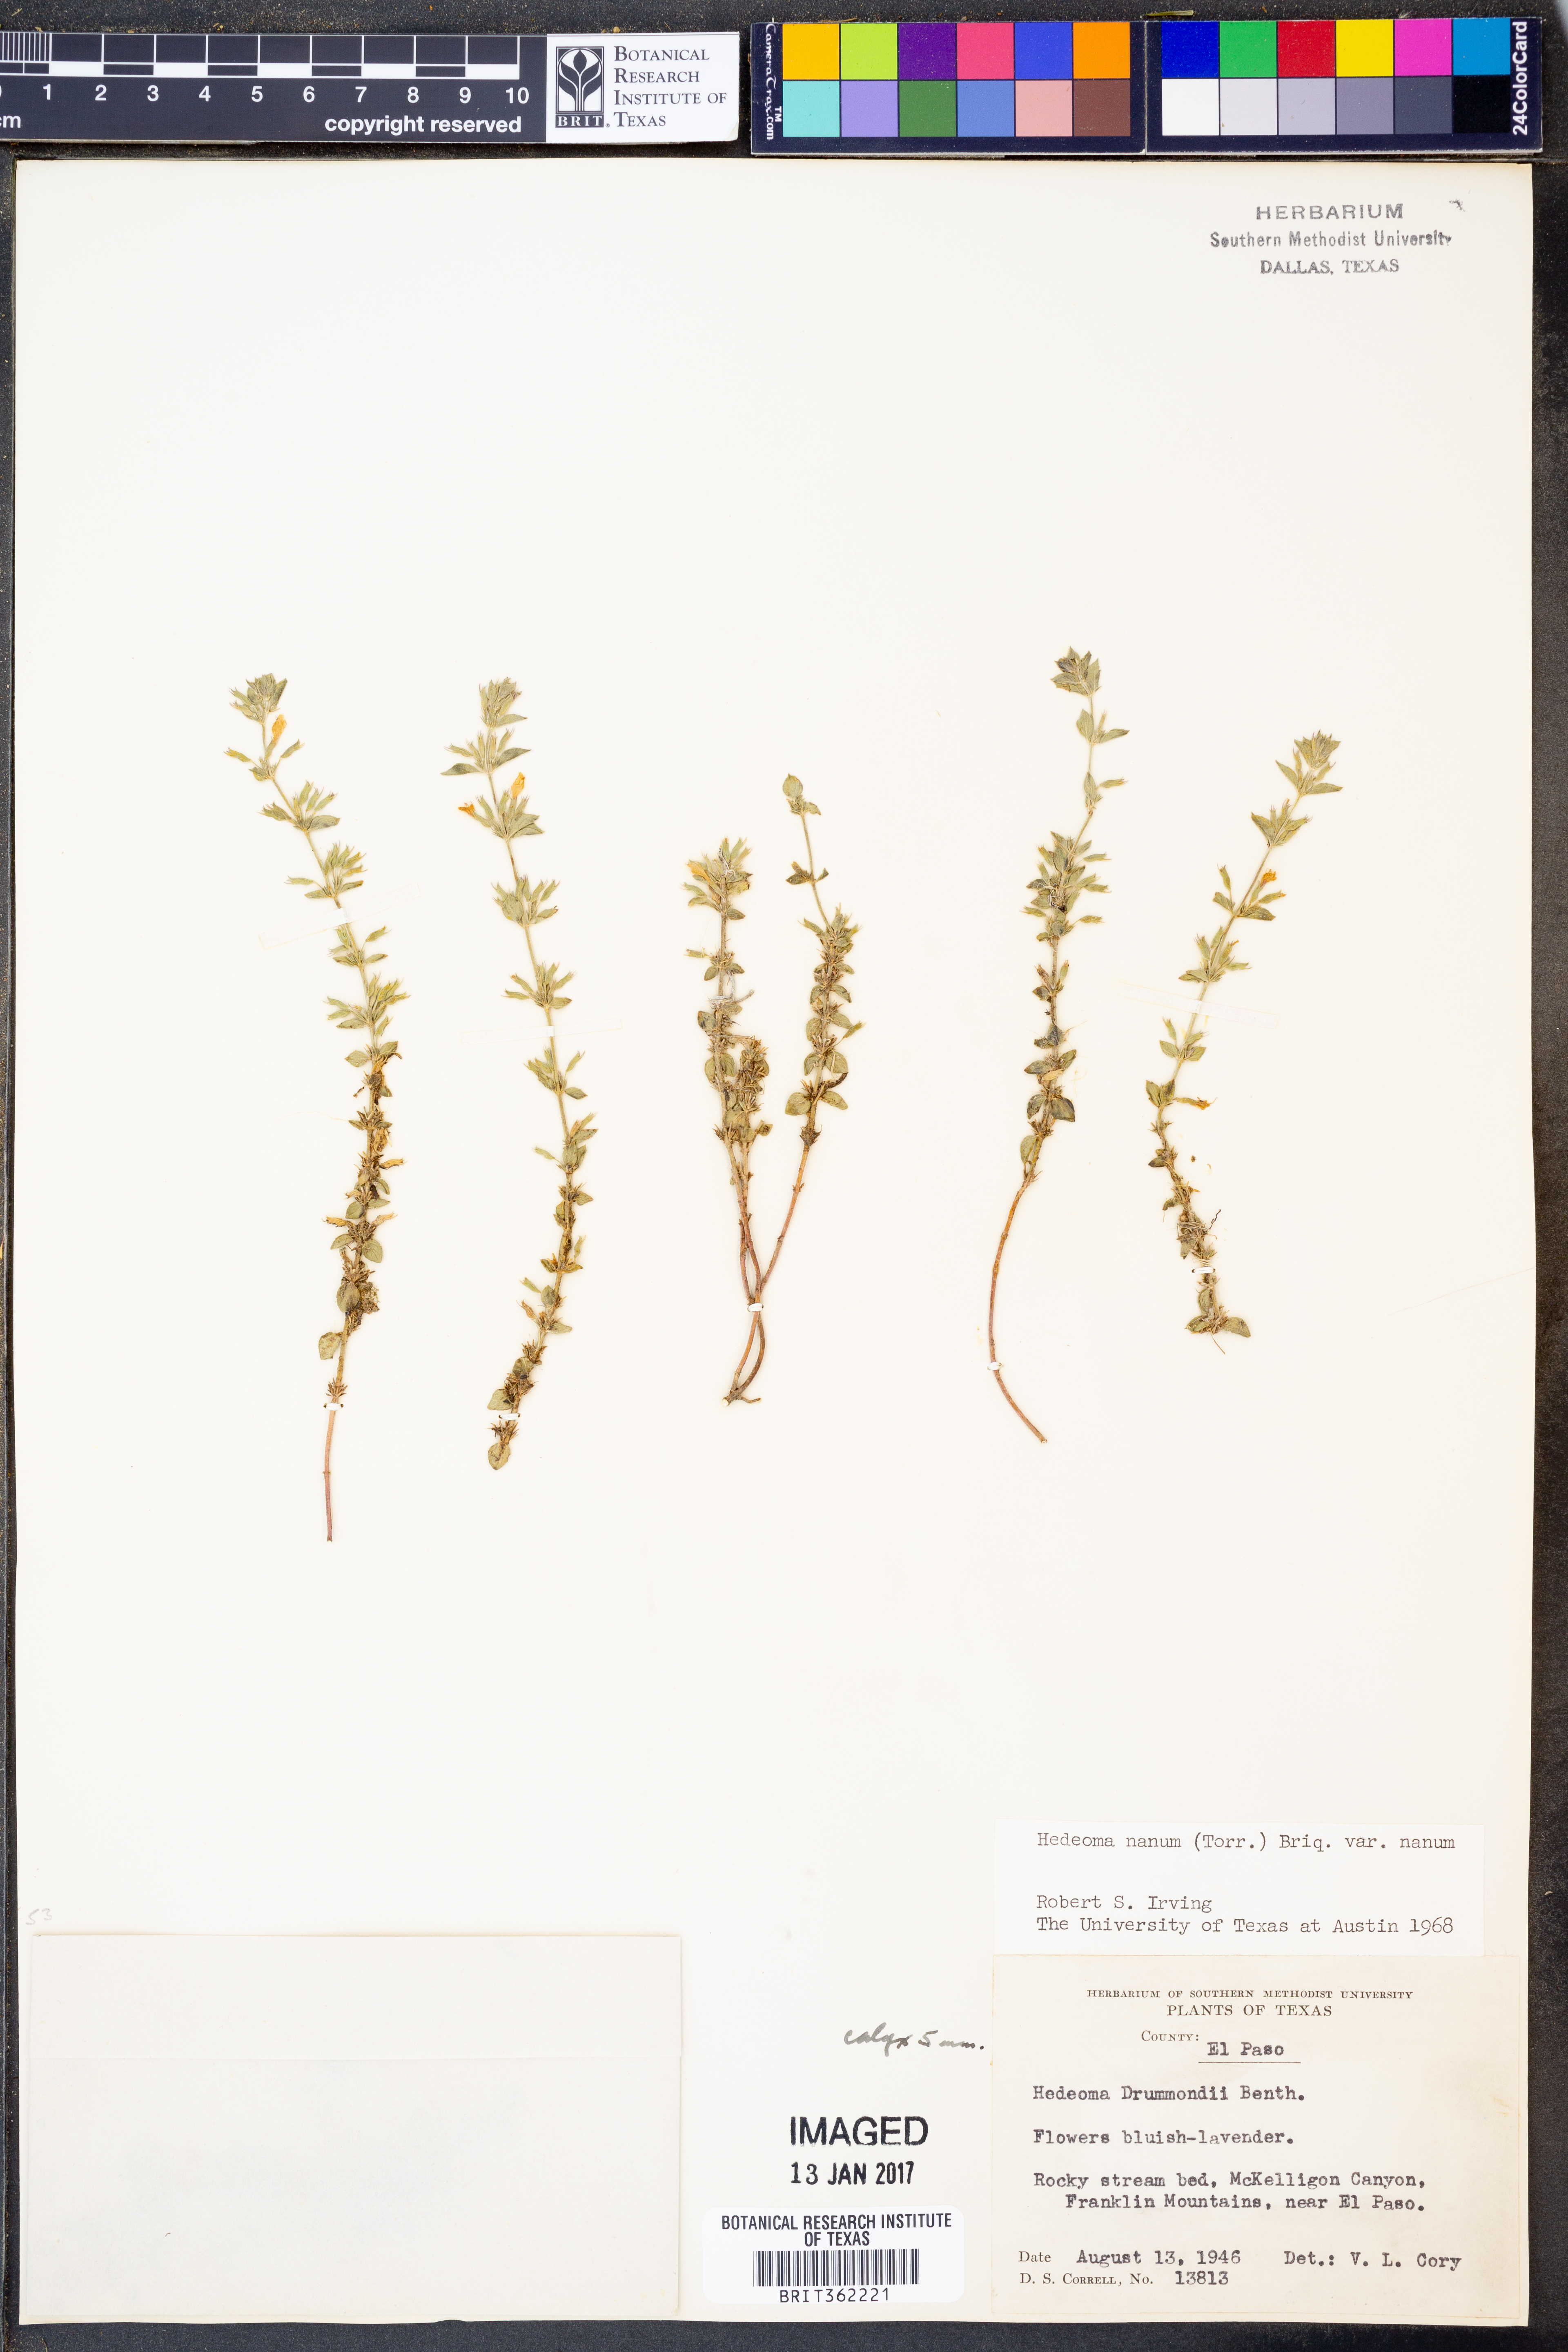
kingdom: Plantae
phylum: Tracheophyta
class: Magnoliopsida
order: Lamiales
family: Lamiaceae
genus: Hedeoma
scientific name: Hedeoma nana
